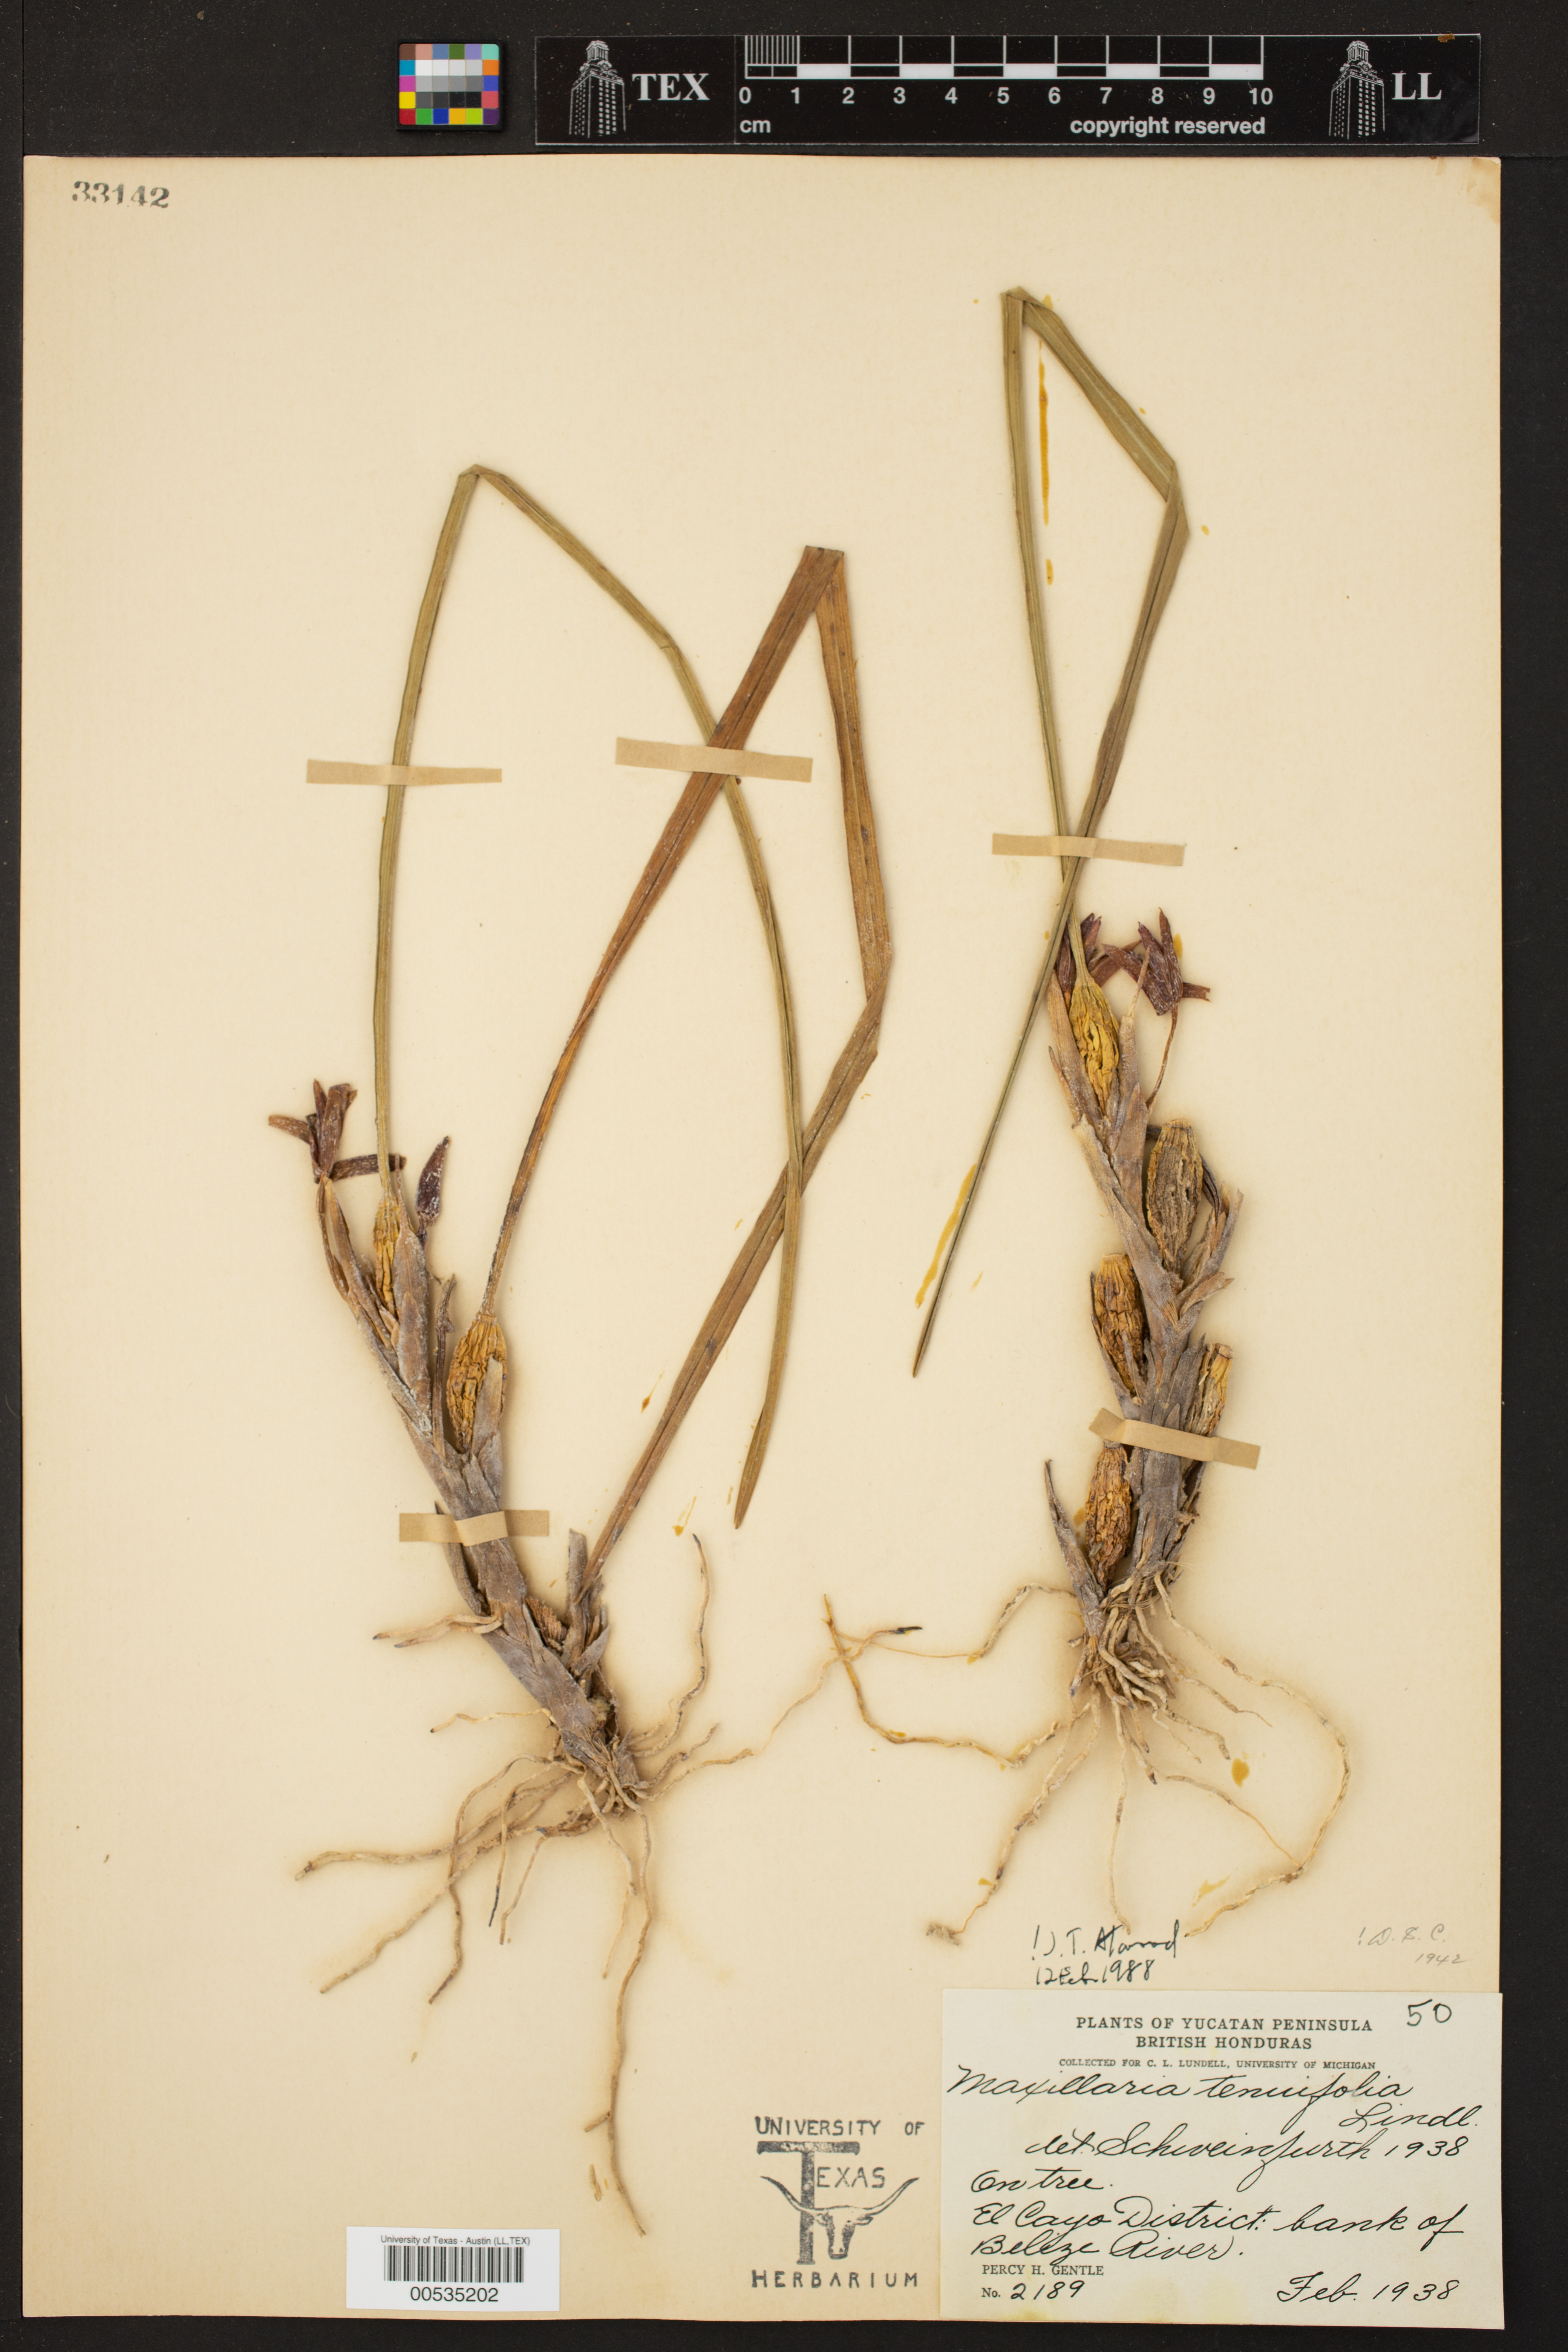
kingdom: Plantae
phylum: Tracheophyta
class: Liliopsida
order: Asparagales
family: Orchidaceae
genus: Maxillaria
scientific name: Maxillaria tenuifolia
